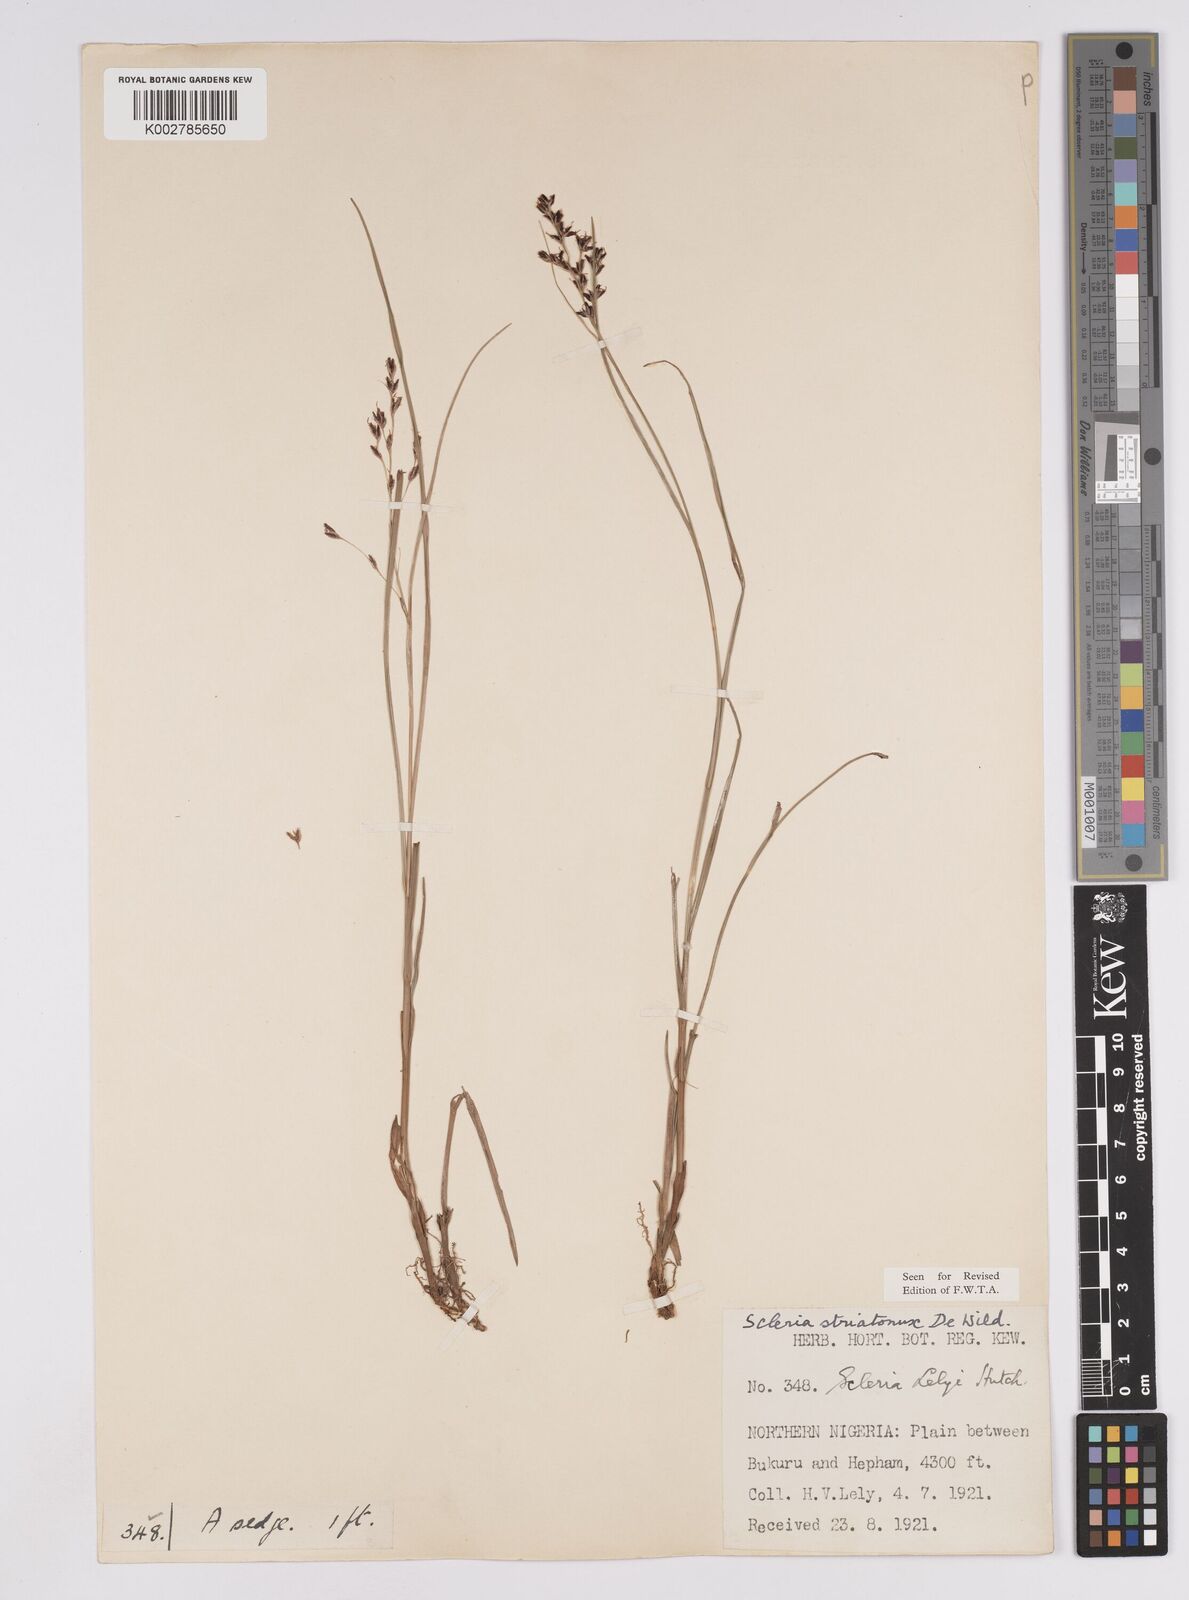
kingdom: Plantae
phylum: Tracheophyta
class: Liliopsida
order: Poales
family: Cyperaceae
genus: Scleria
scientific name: Scleria woodii
